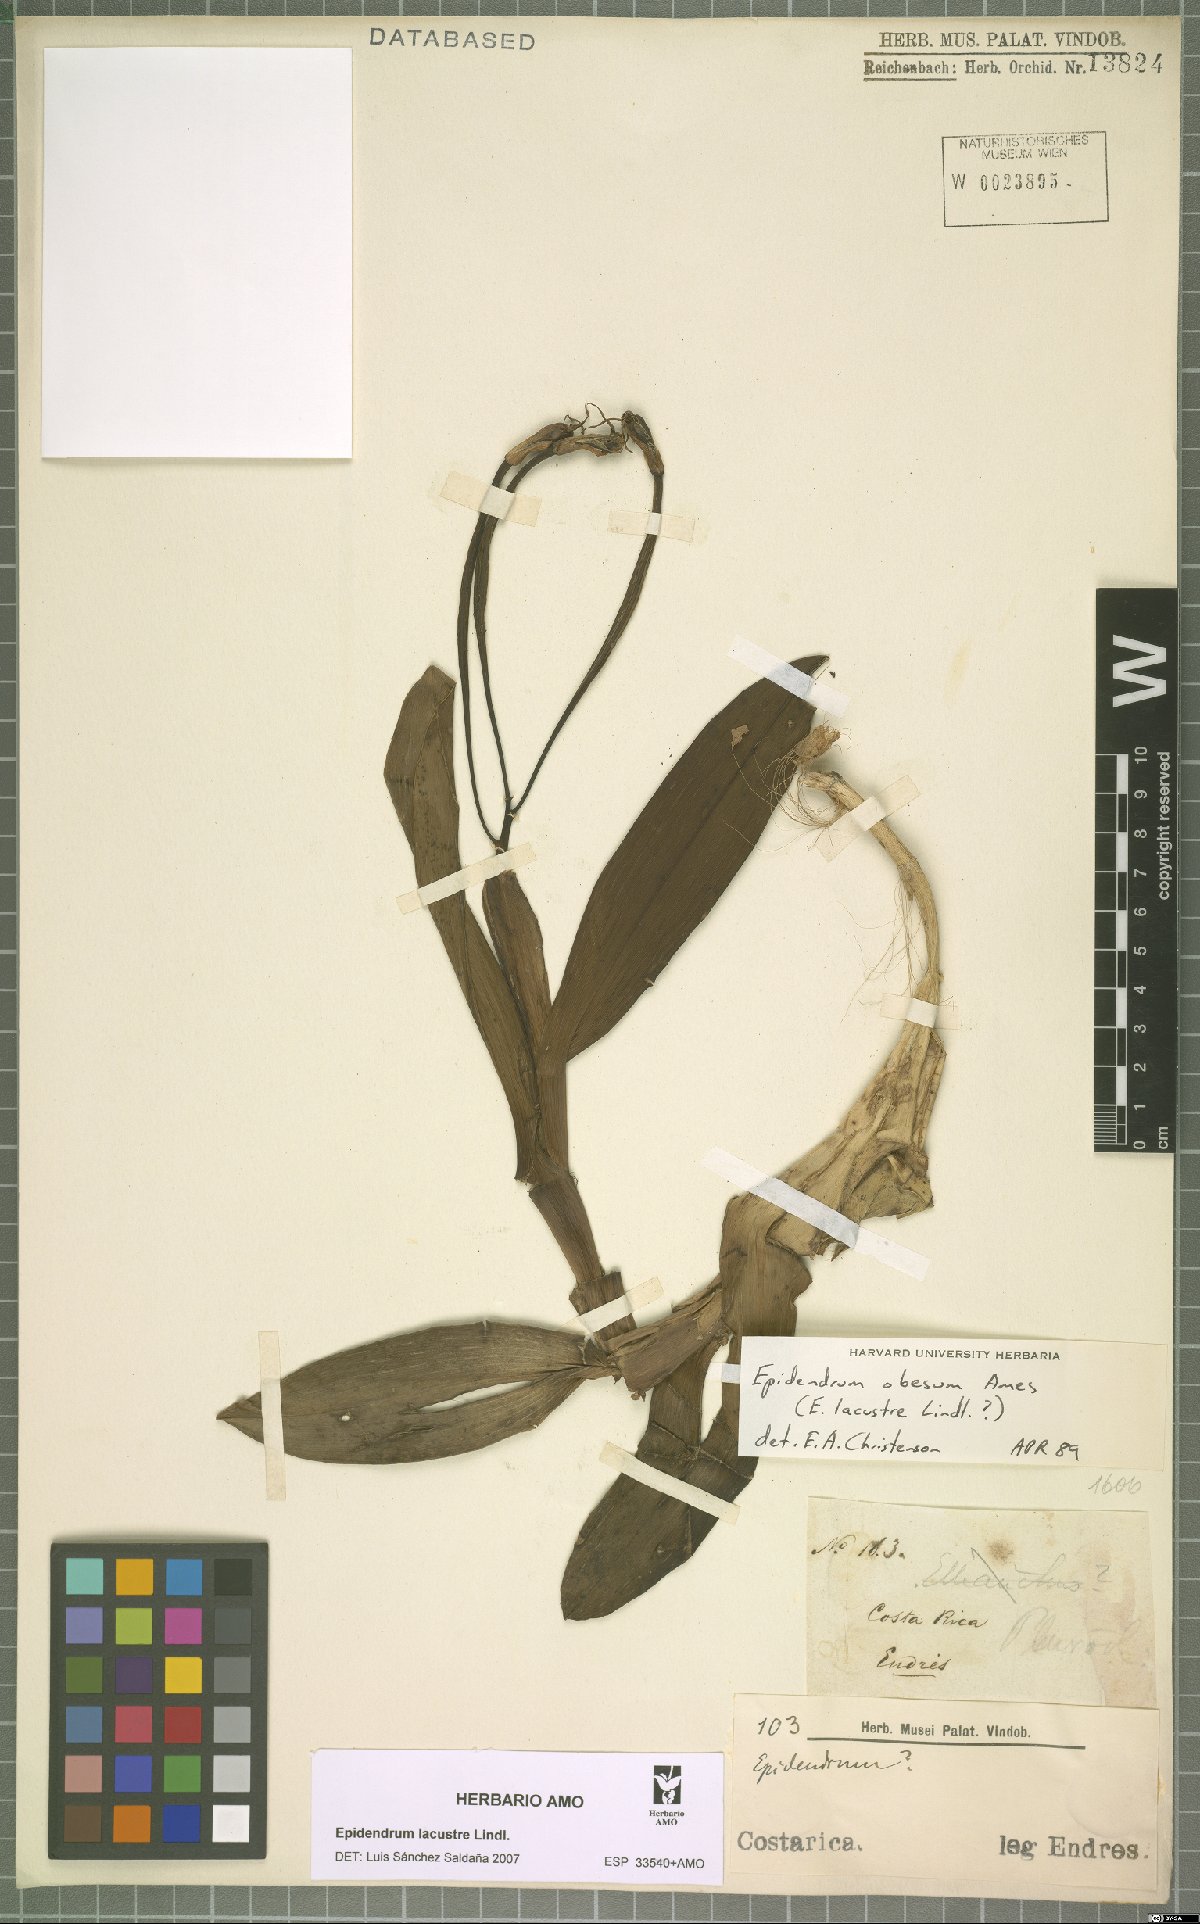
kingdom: Plantae
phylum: Tracheophyta
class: Liliopsida
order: Asparagales
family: Orchidaceae
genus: Epidendrum
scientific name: Epidendrum lacustre
